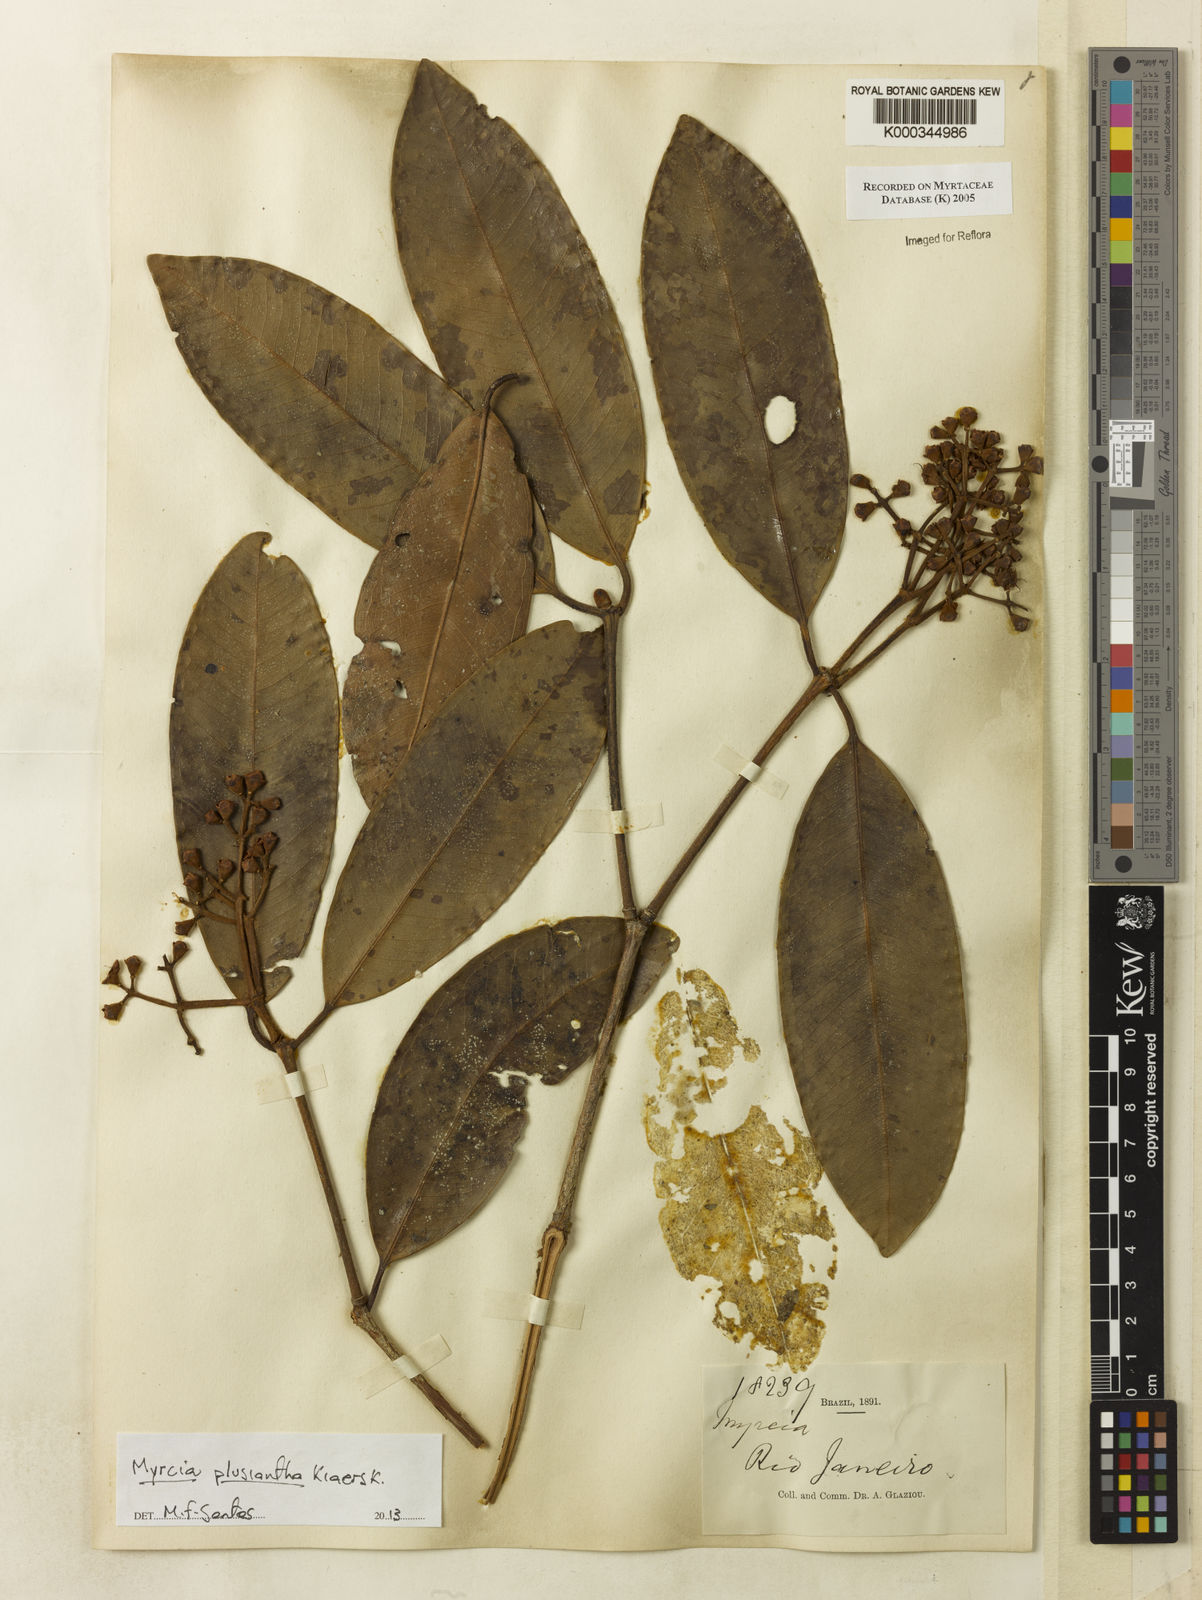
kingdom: Plantae
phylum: Tracheophyta
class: Magnoliopsida
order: Myrtales
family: Myrtaceae
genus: Myrcia
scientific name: Myrcia
